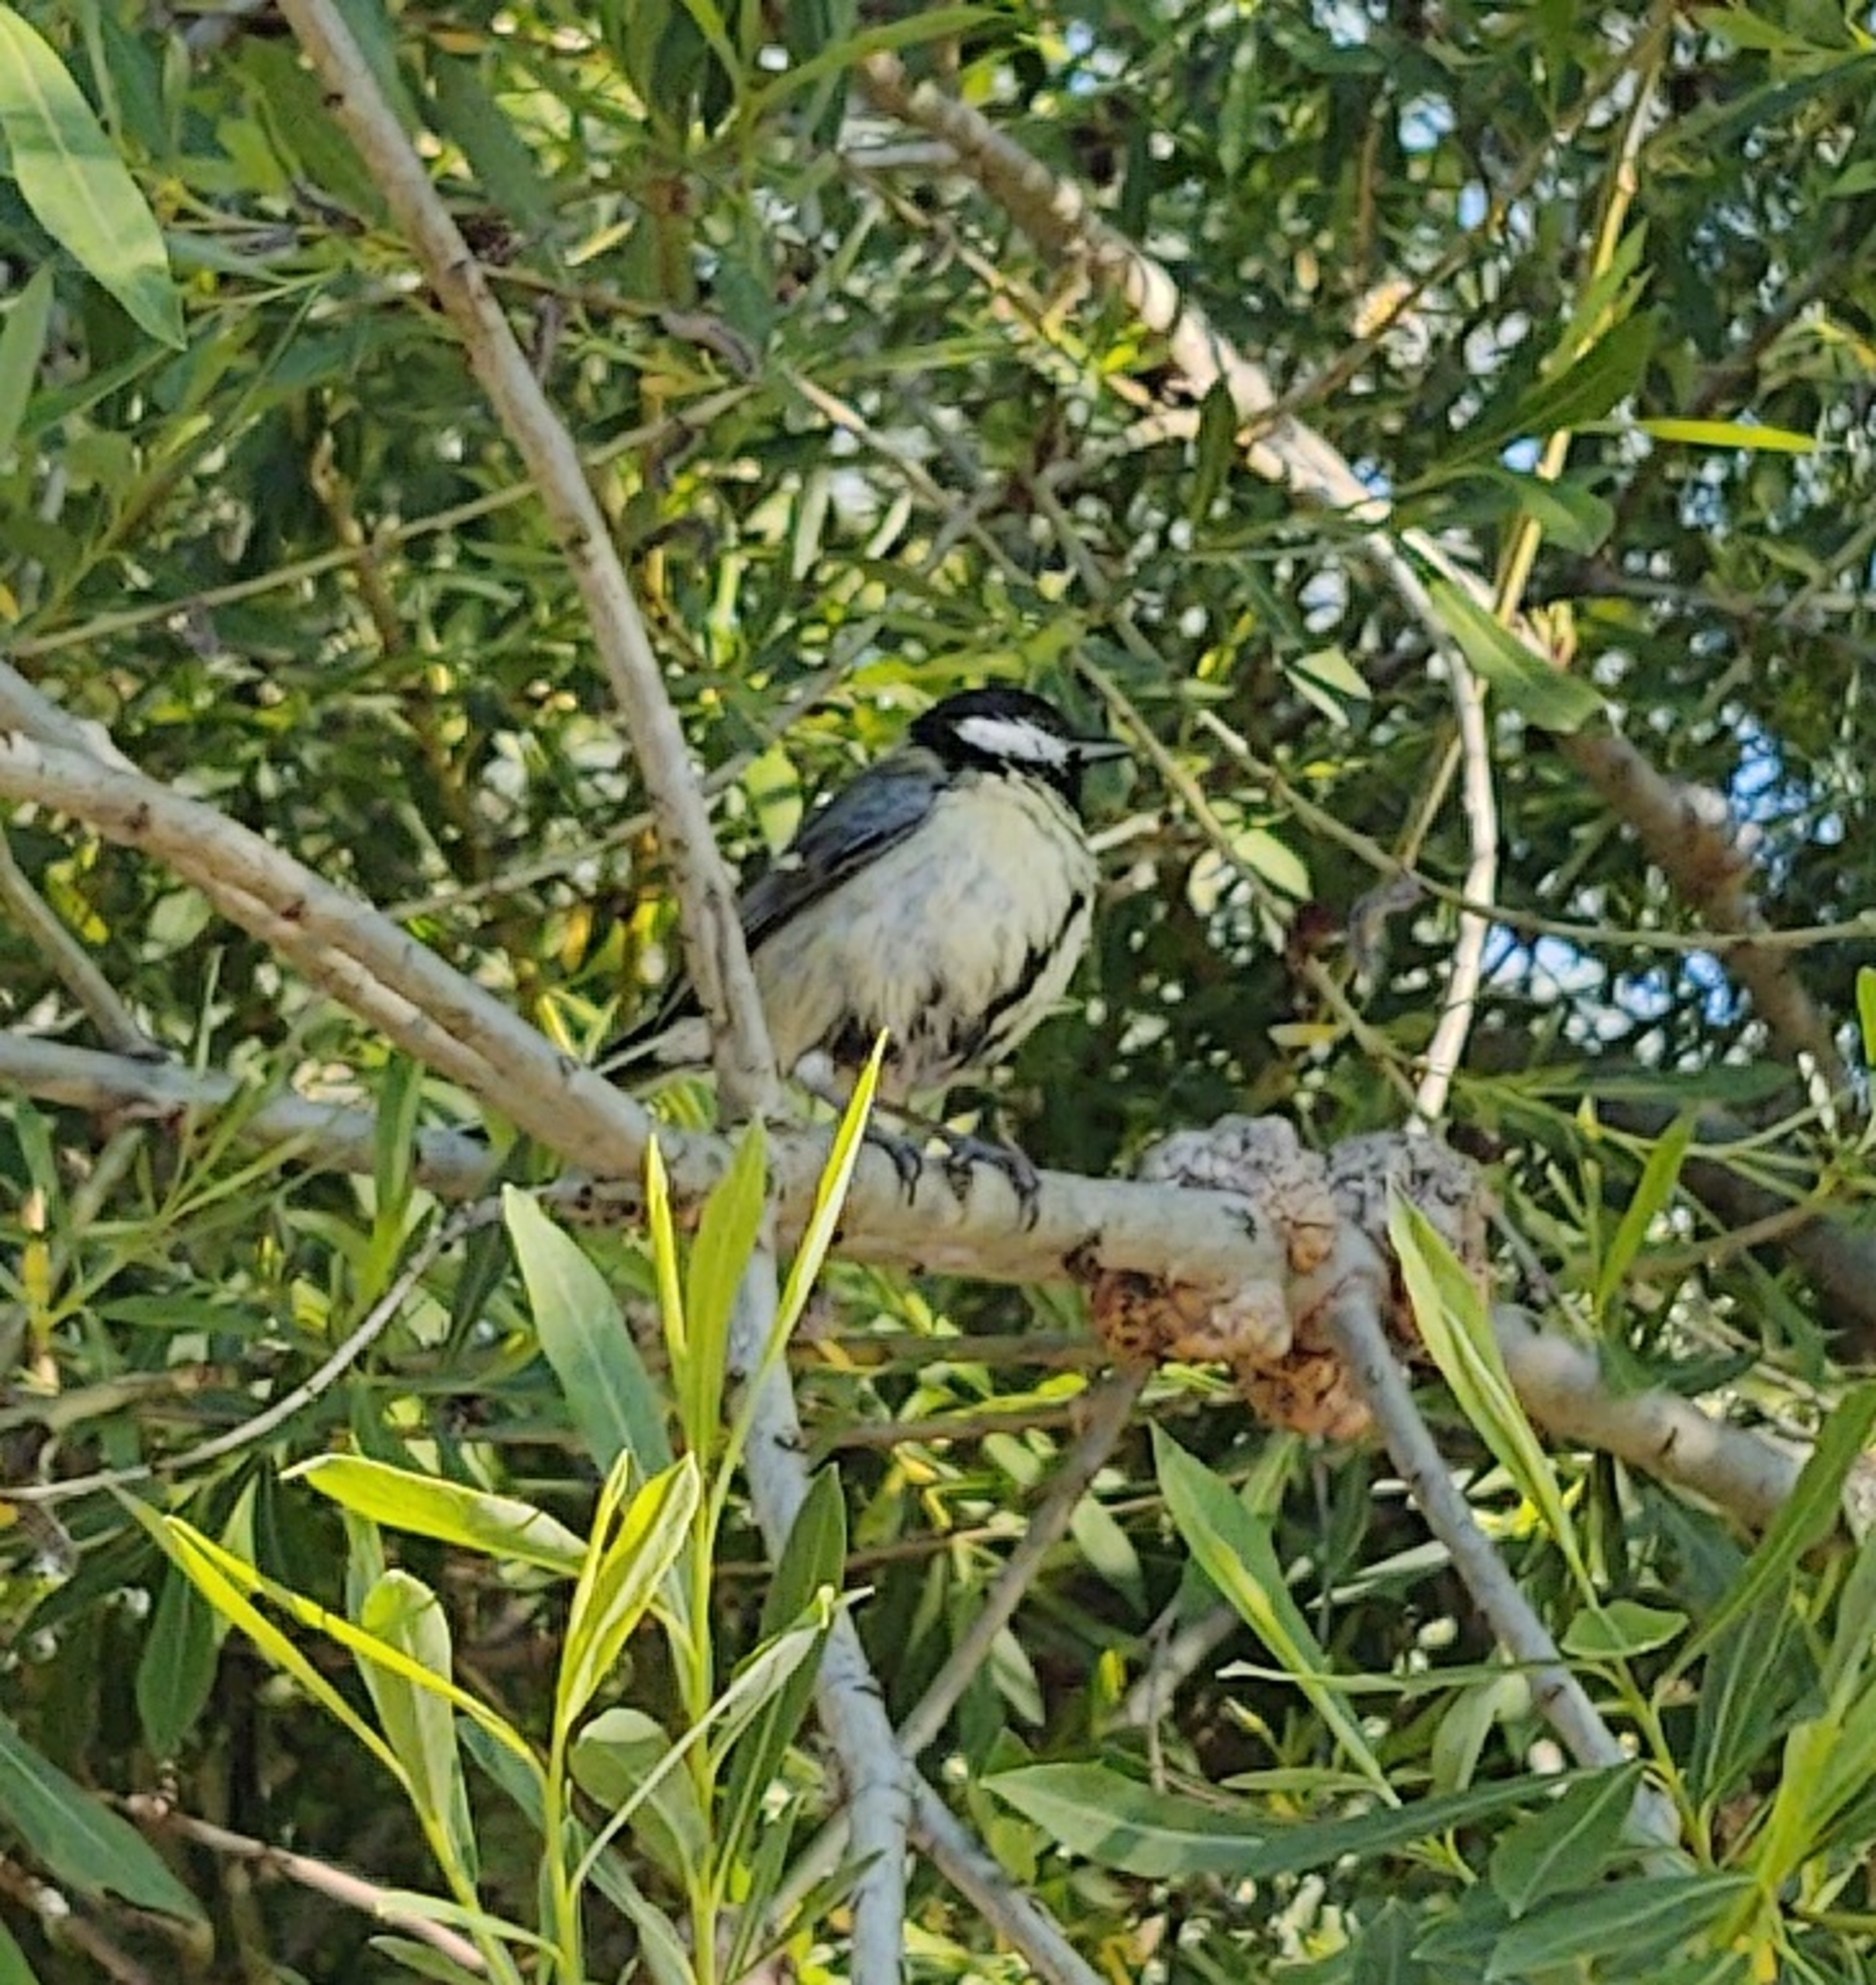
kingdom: Animalia
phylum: Chordata
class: Aves
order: Passeriformes
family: Paridae
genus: Parus
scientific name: Parus major
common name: Musvit
